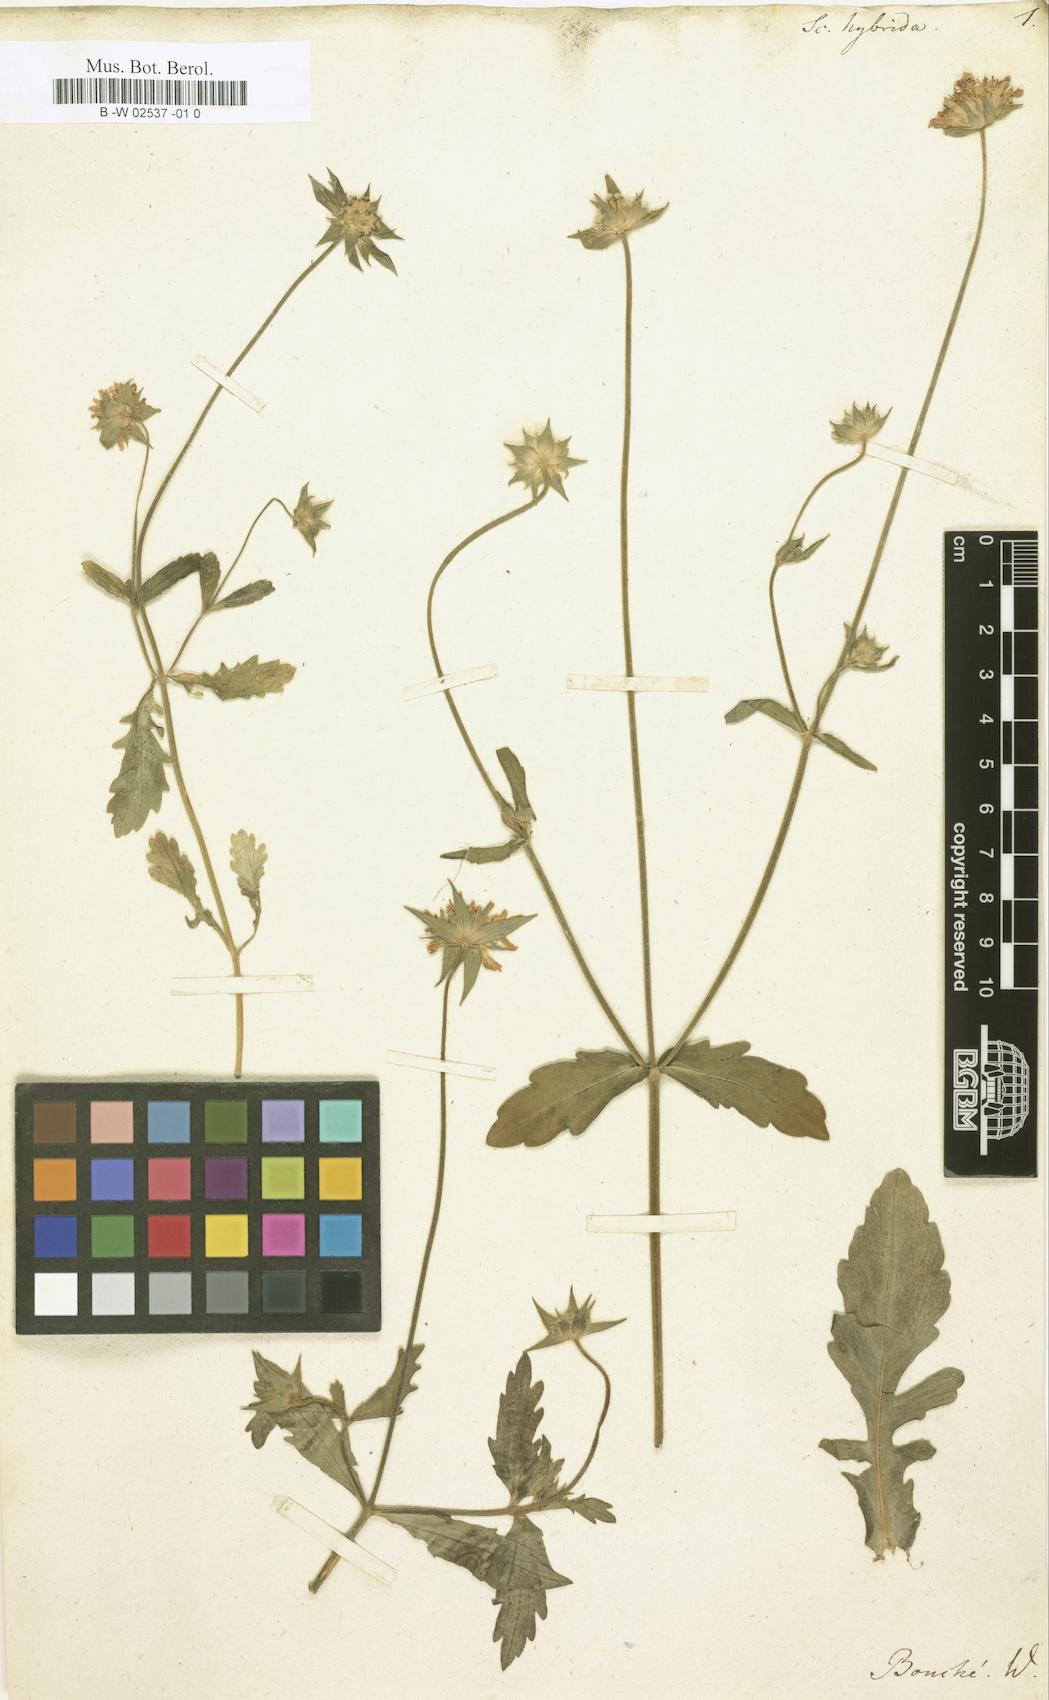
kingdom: Plantae
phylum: Tracheophyta
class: Magnoliopsida
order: Dipsacales
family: Caprifoliaceae
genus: Knautia
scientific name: Knautia
